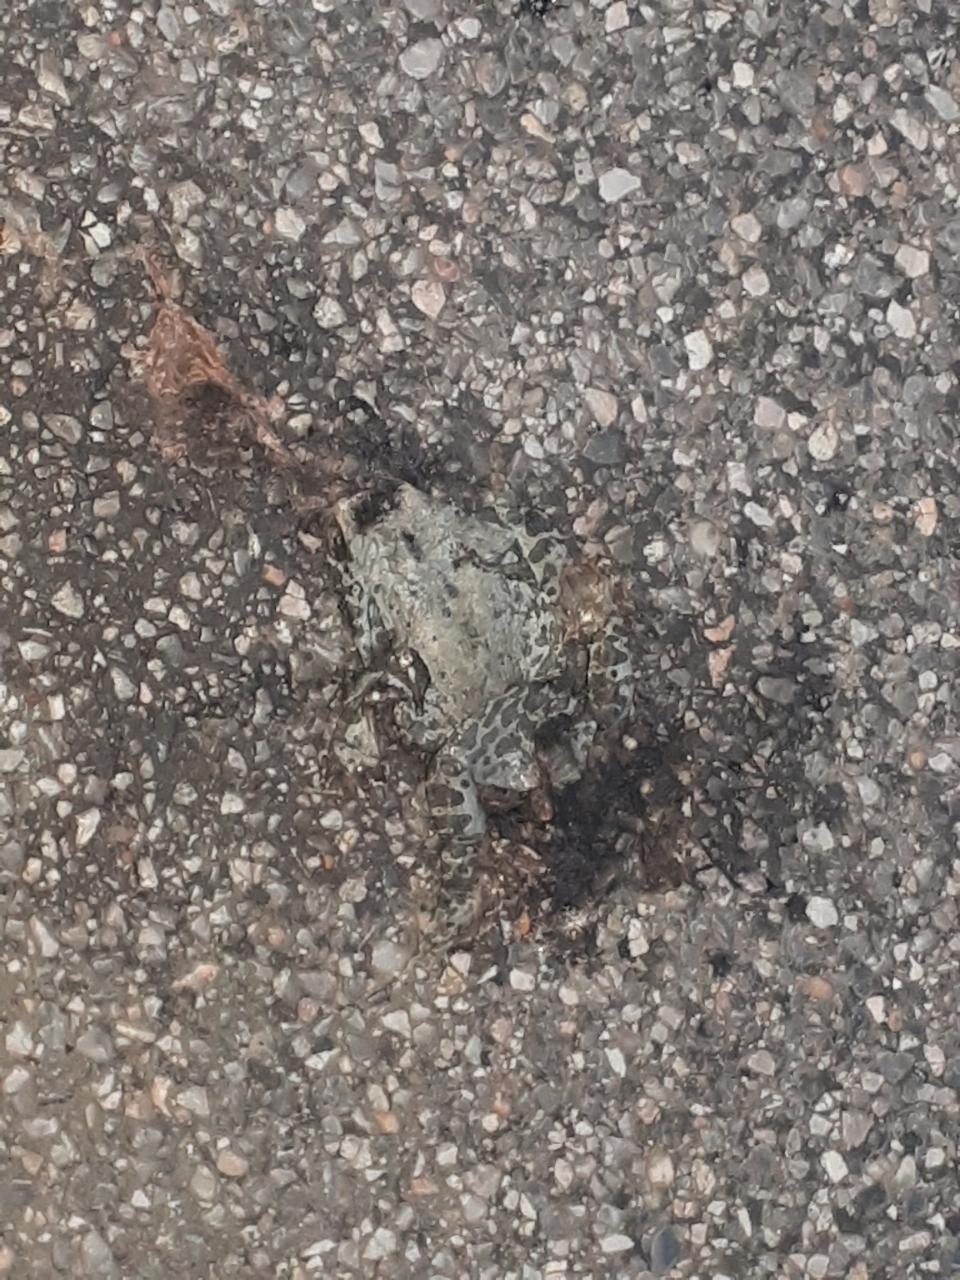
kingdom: Animalia
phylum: Chordata
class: Amphibia
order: Anura
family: Bufonidae
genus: Bufotes
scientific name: Bufotes viridis
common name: European green toad
